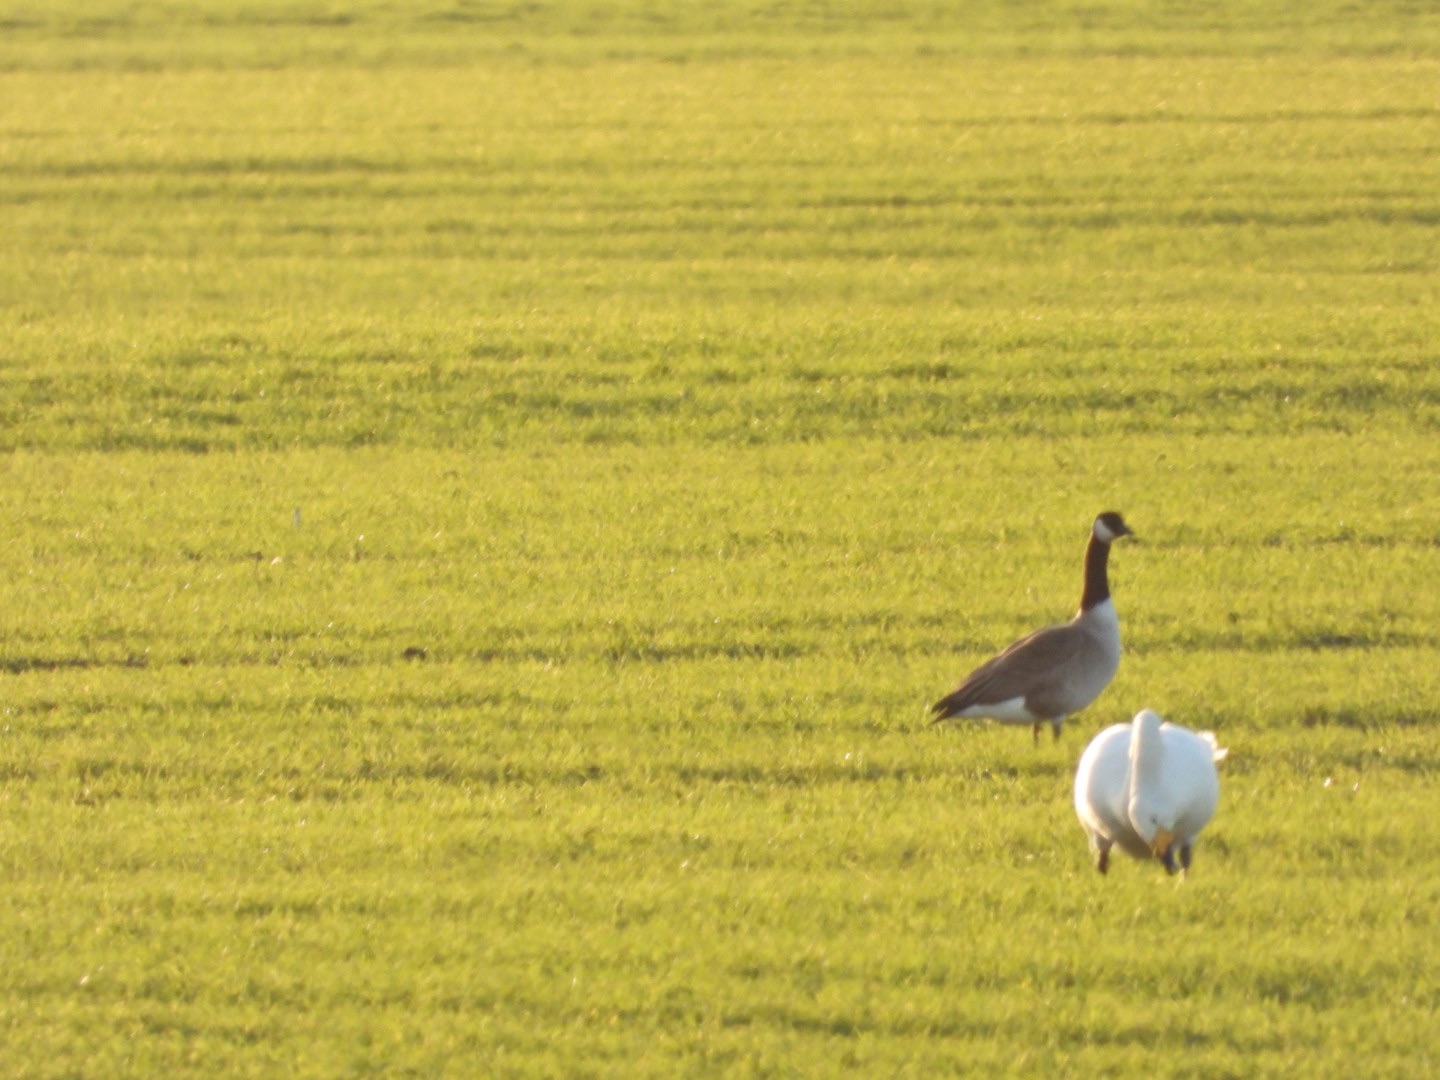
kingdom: Animalia
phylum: Chordata
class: Aves
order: Anseriformes
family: Anatidae
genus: Branta
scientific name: Branta canadensis
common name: Canadagås
